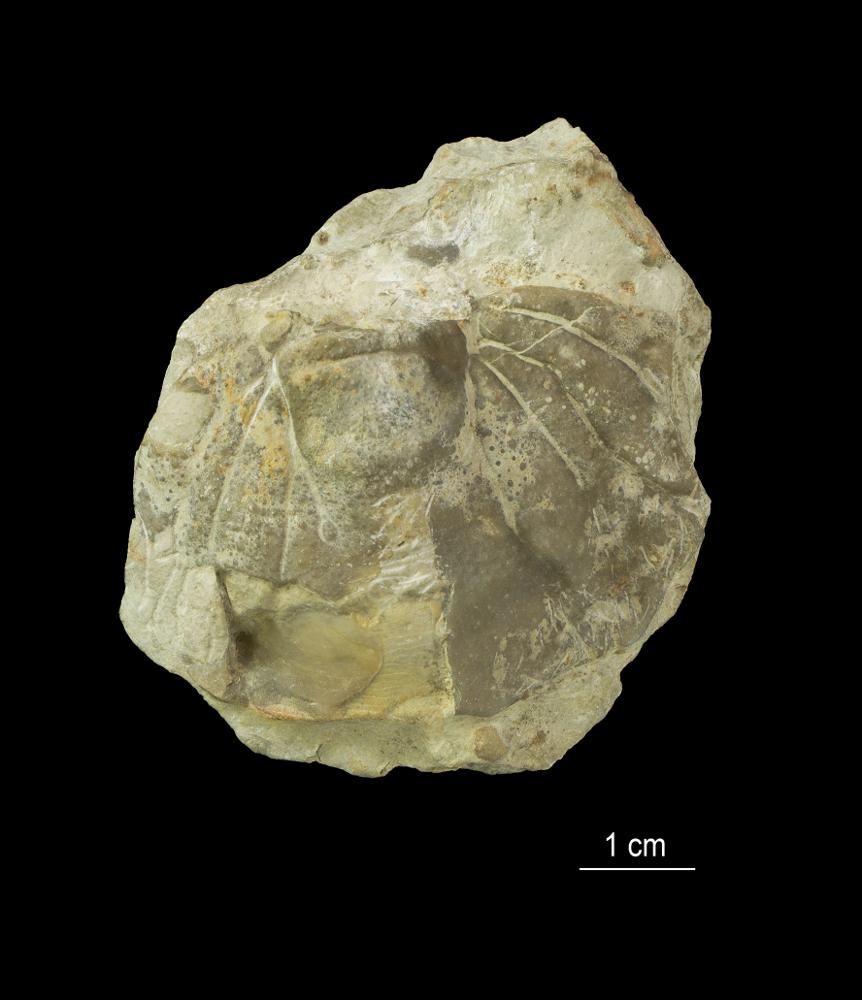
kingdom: Animalia
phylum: Arthropoda
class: Trilobita
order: Lichida
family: Lichidae
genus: Conolichas
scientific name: Conolichas eichwaldi
